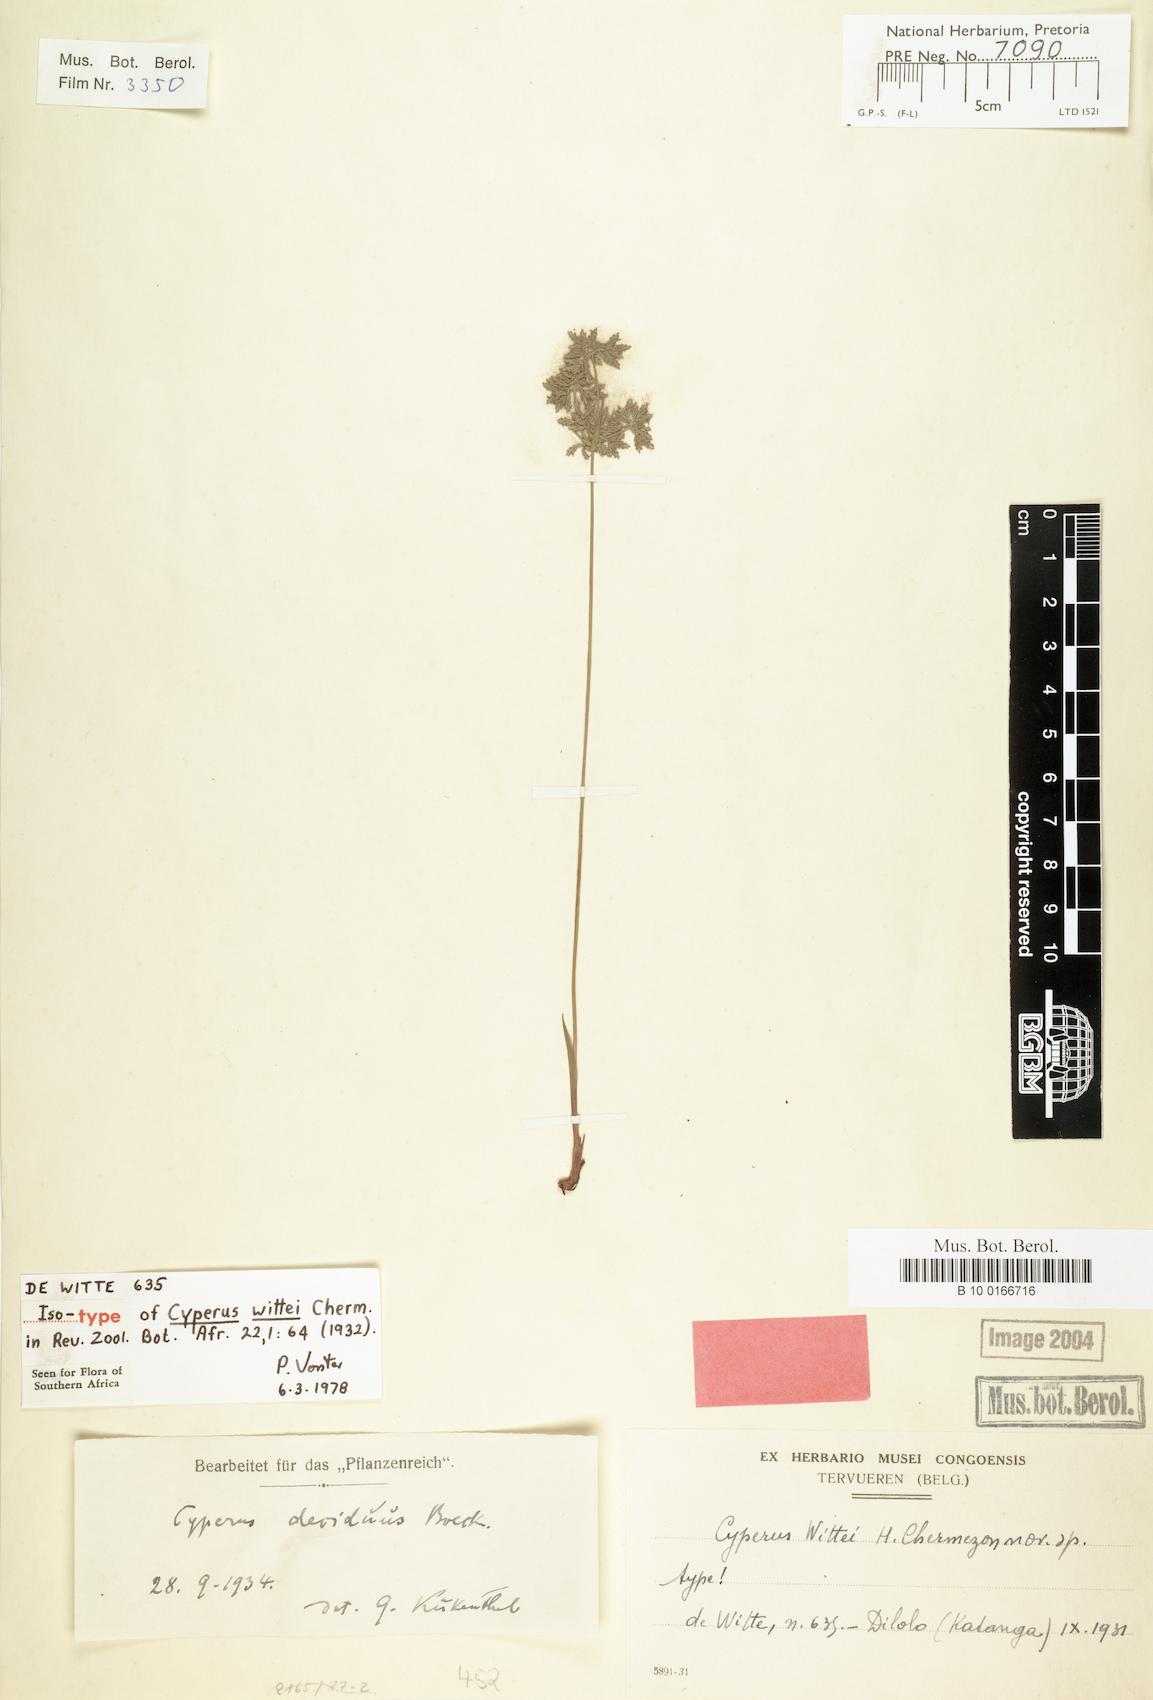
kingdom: Plantae
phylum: Tracheophyta
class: Liliopsida
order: Poales
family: Cyperaceae
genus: Cyperus
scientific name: Cyperus deciduus
